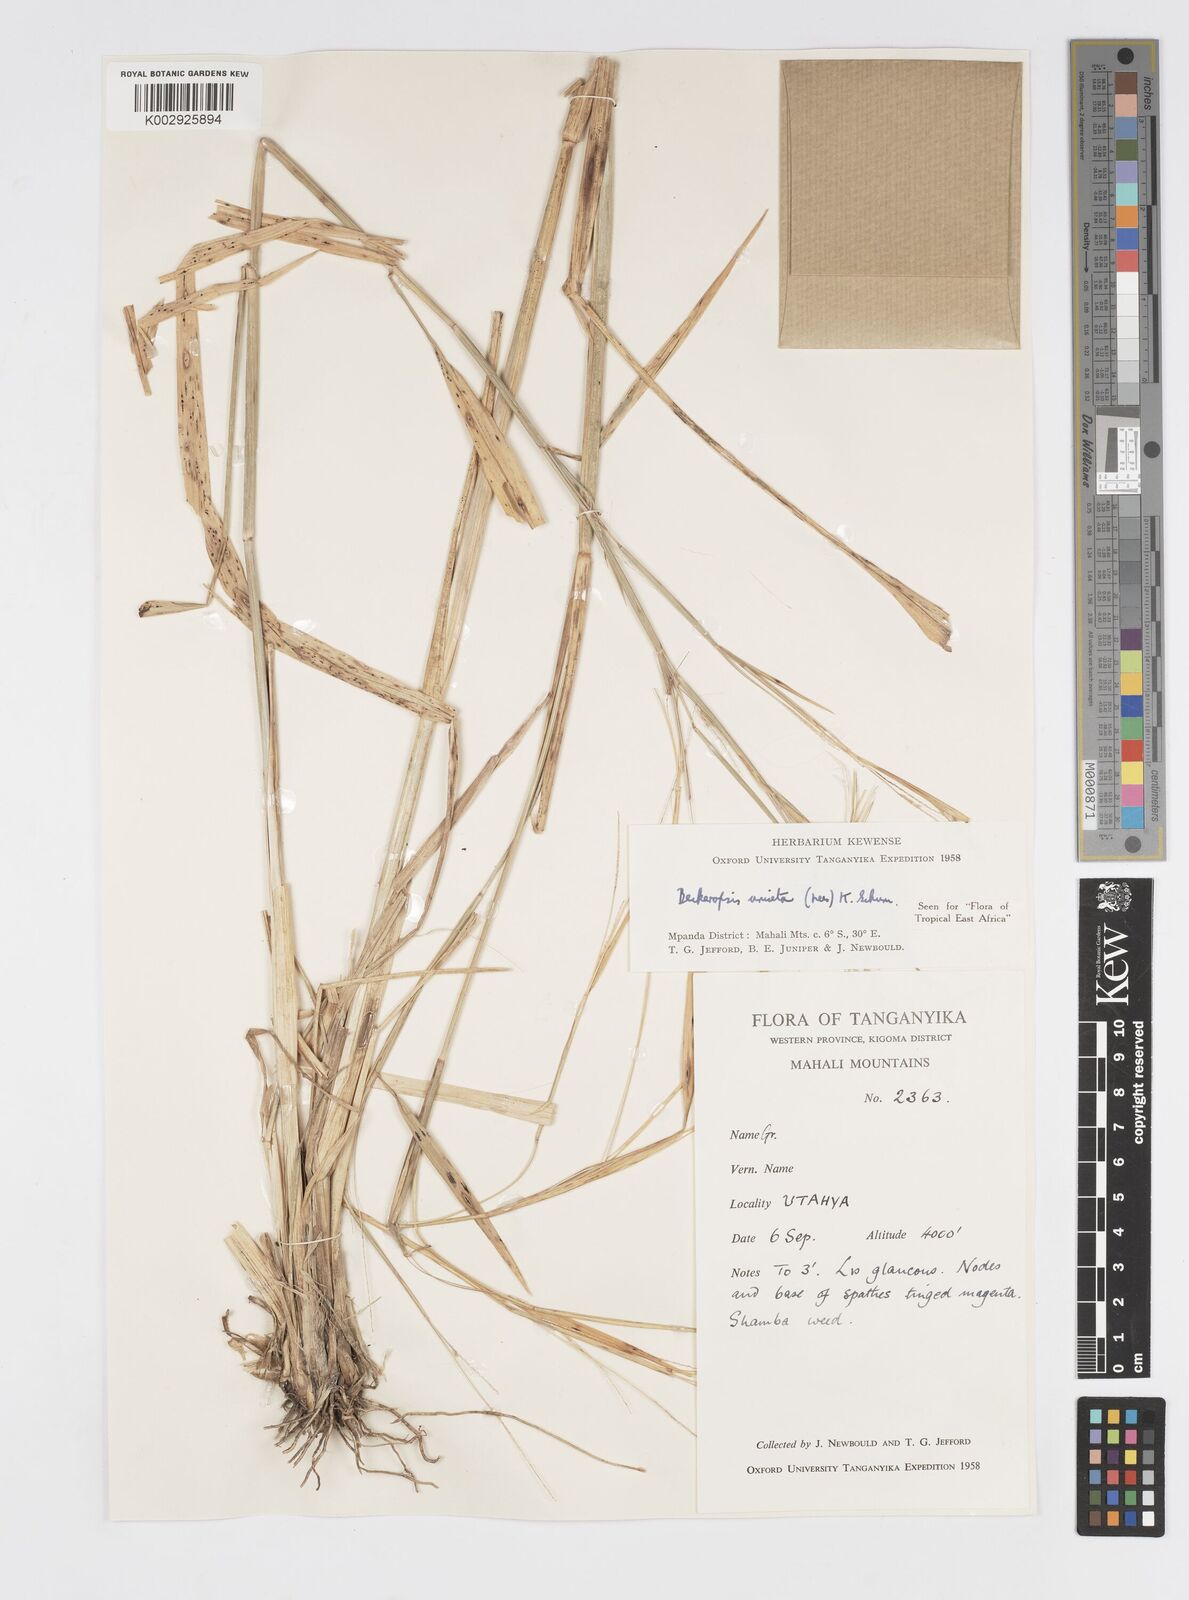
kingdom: Plantae
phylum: Tracheophyta
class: Liliopsida
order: Poales
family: Poaceae
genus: Cenchrus
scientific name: Cenchrus unisetus
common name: Natal grass
